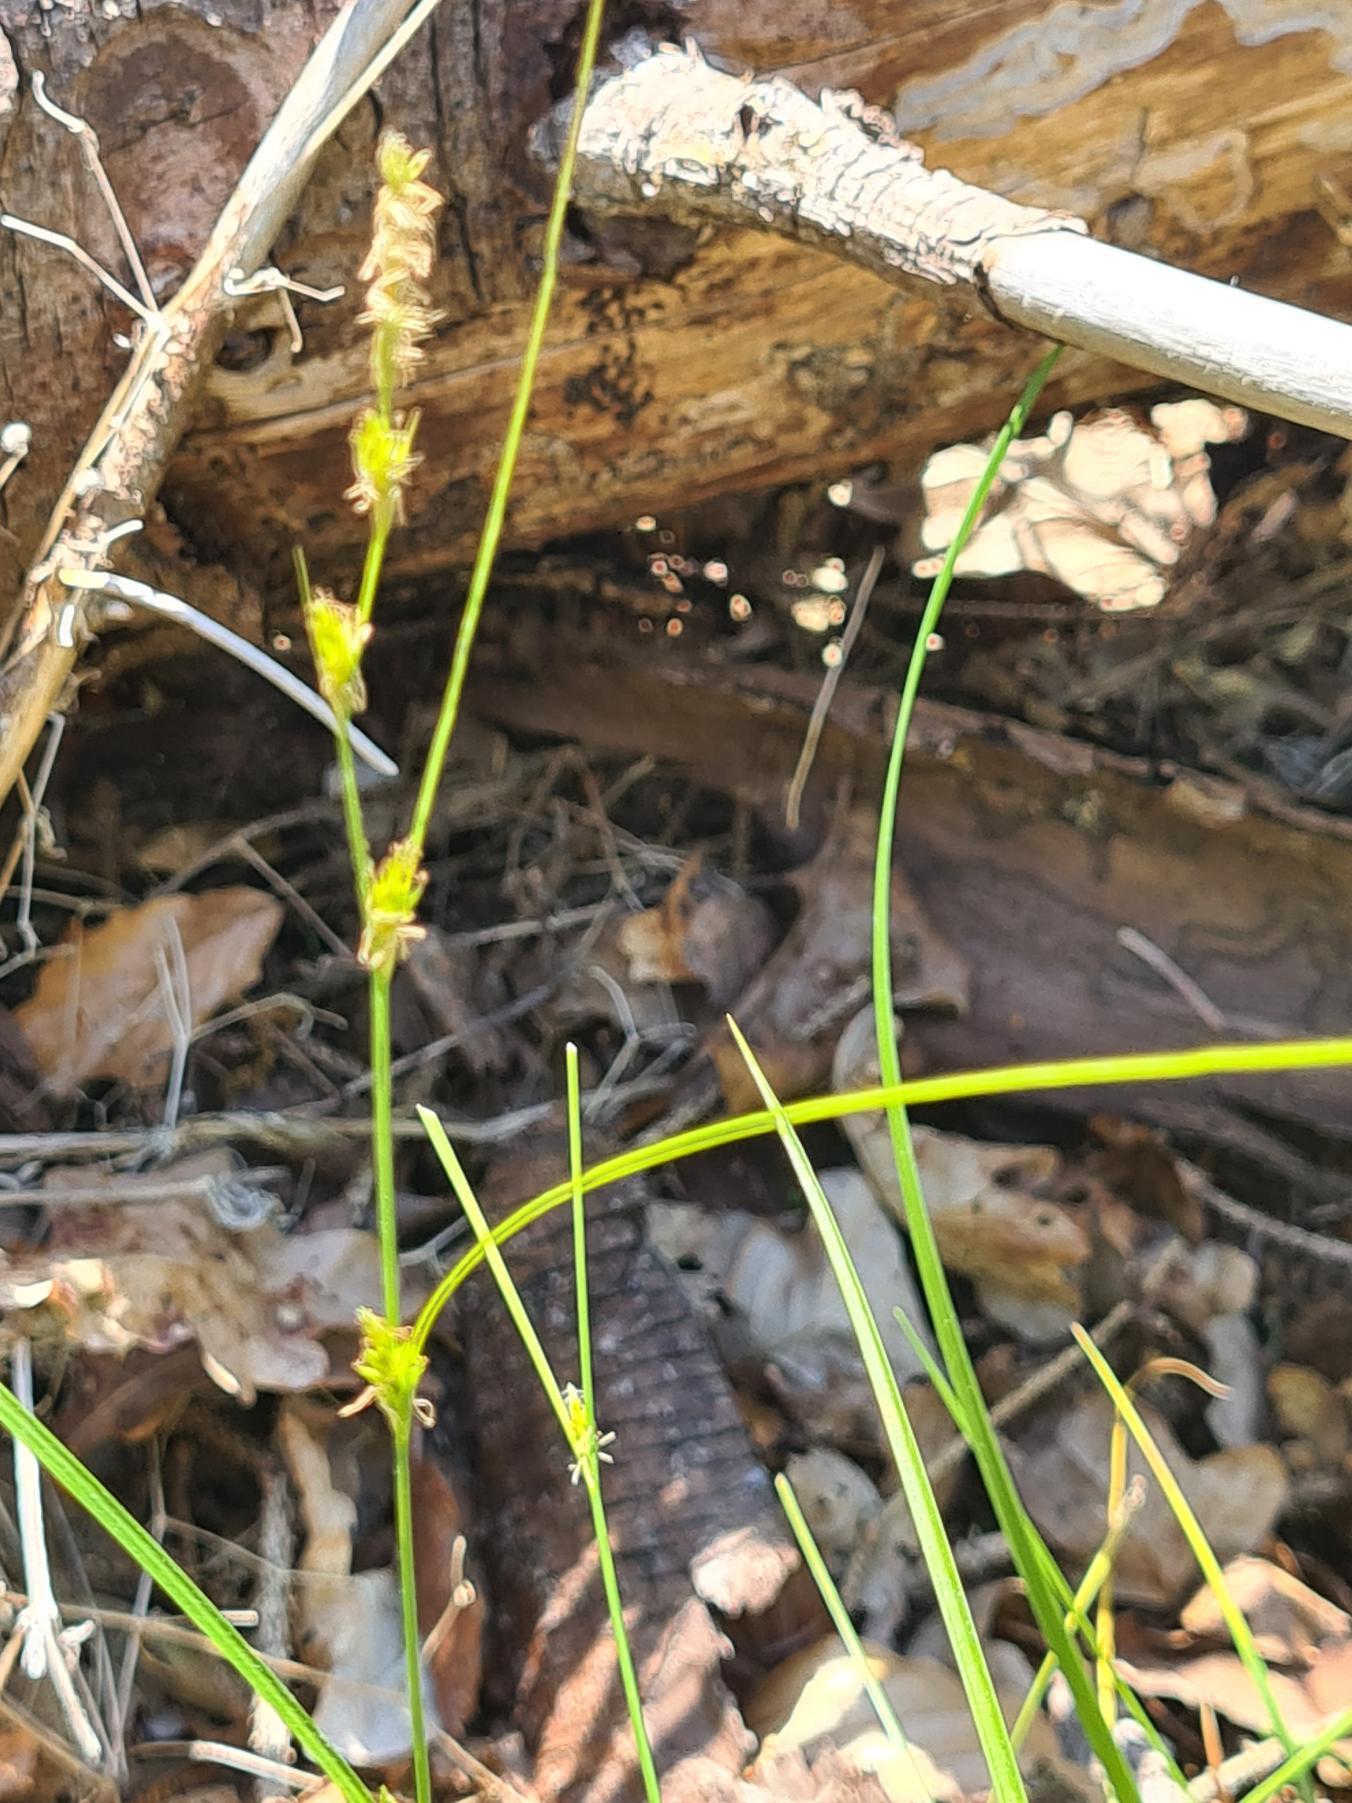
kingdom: Plantae
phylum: Tracheophyta
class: Liliopsida
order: Poales
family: Cyperaceae
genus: Carex
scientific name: Carex remota
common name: Akselblomstret star
